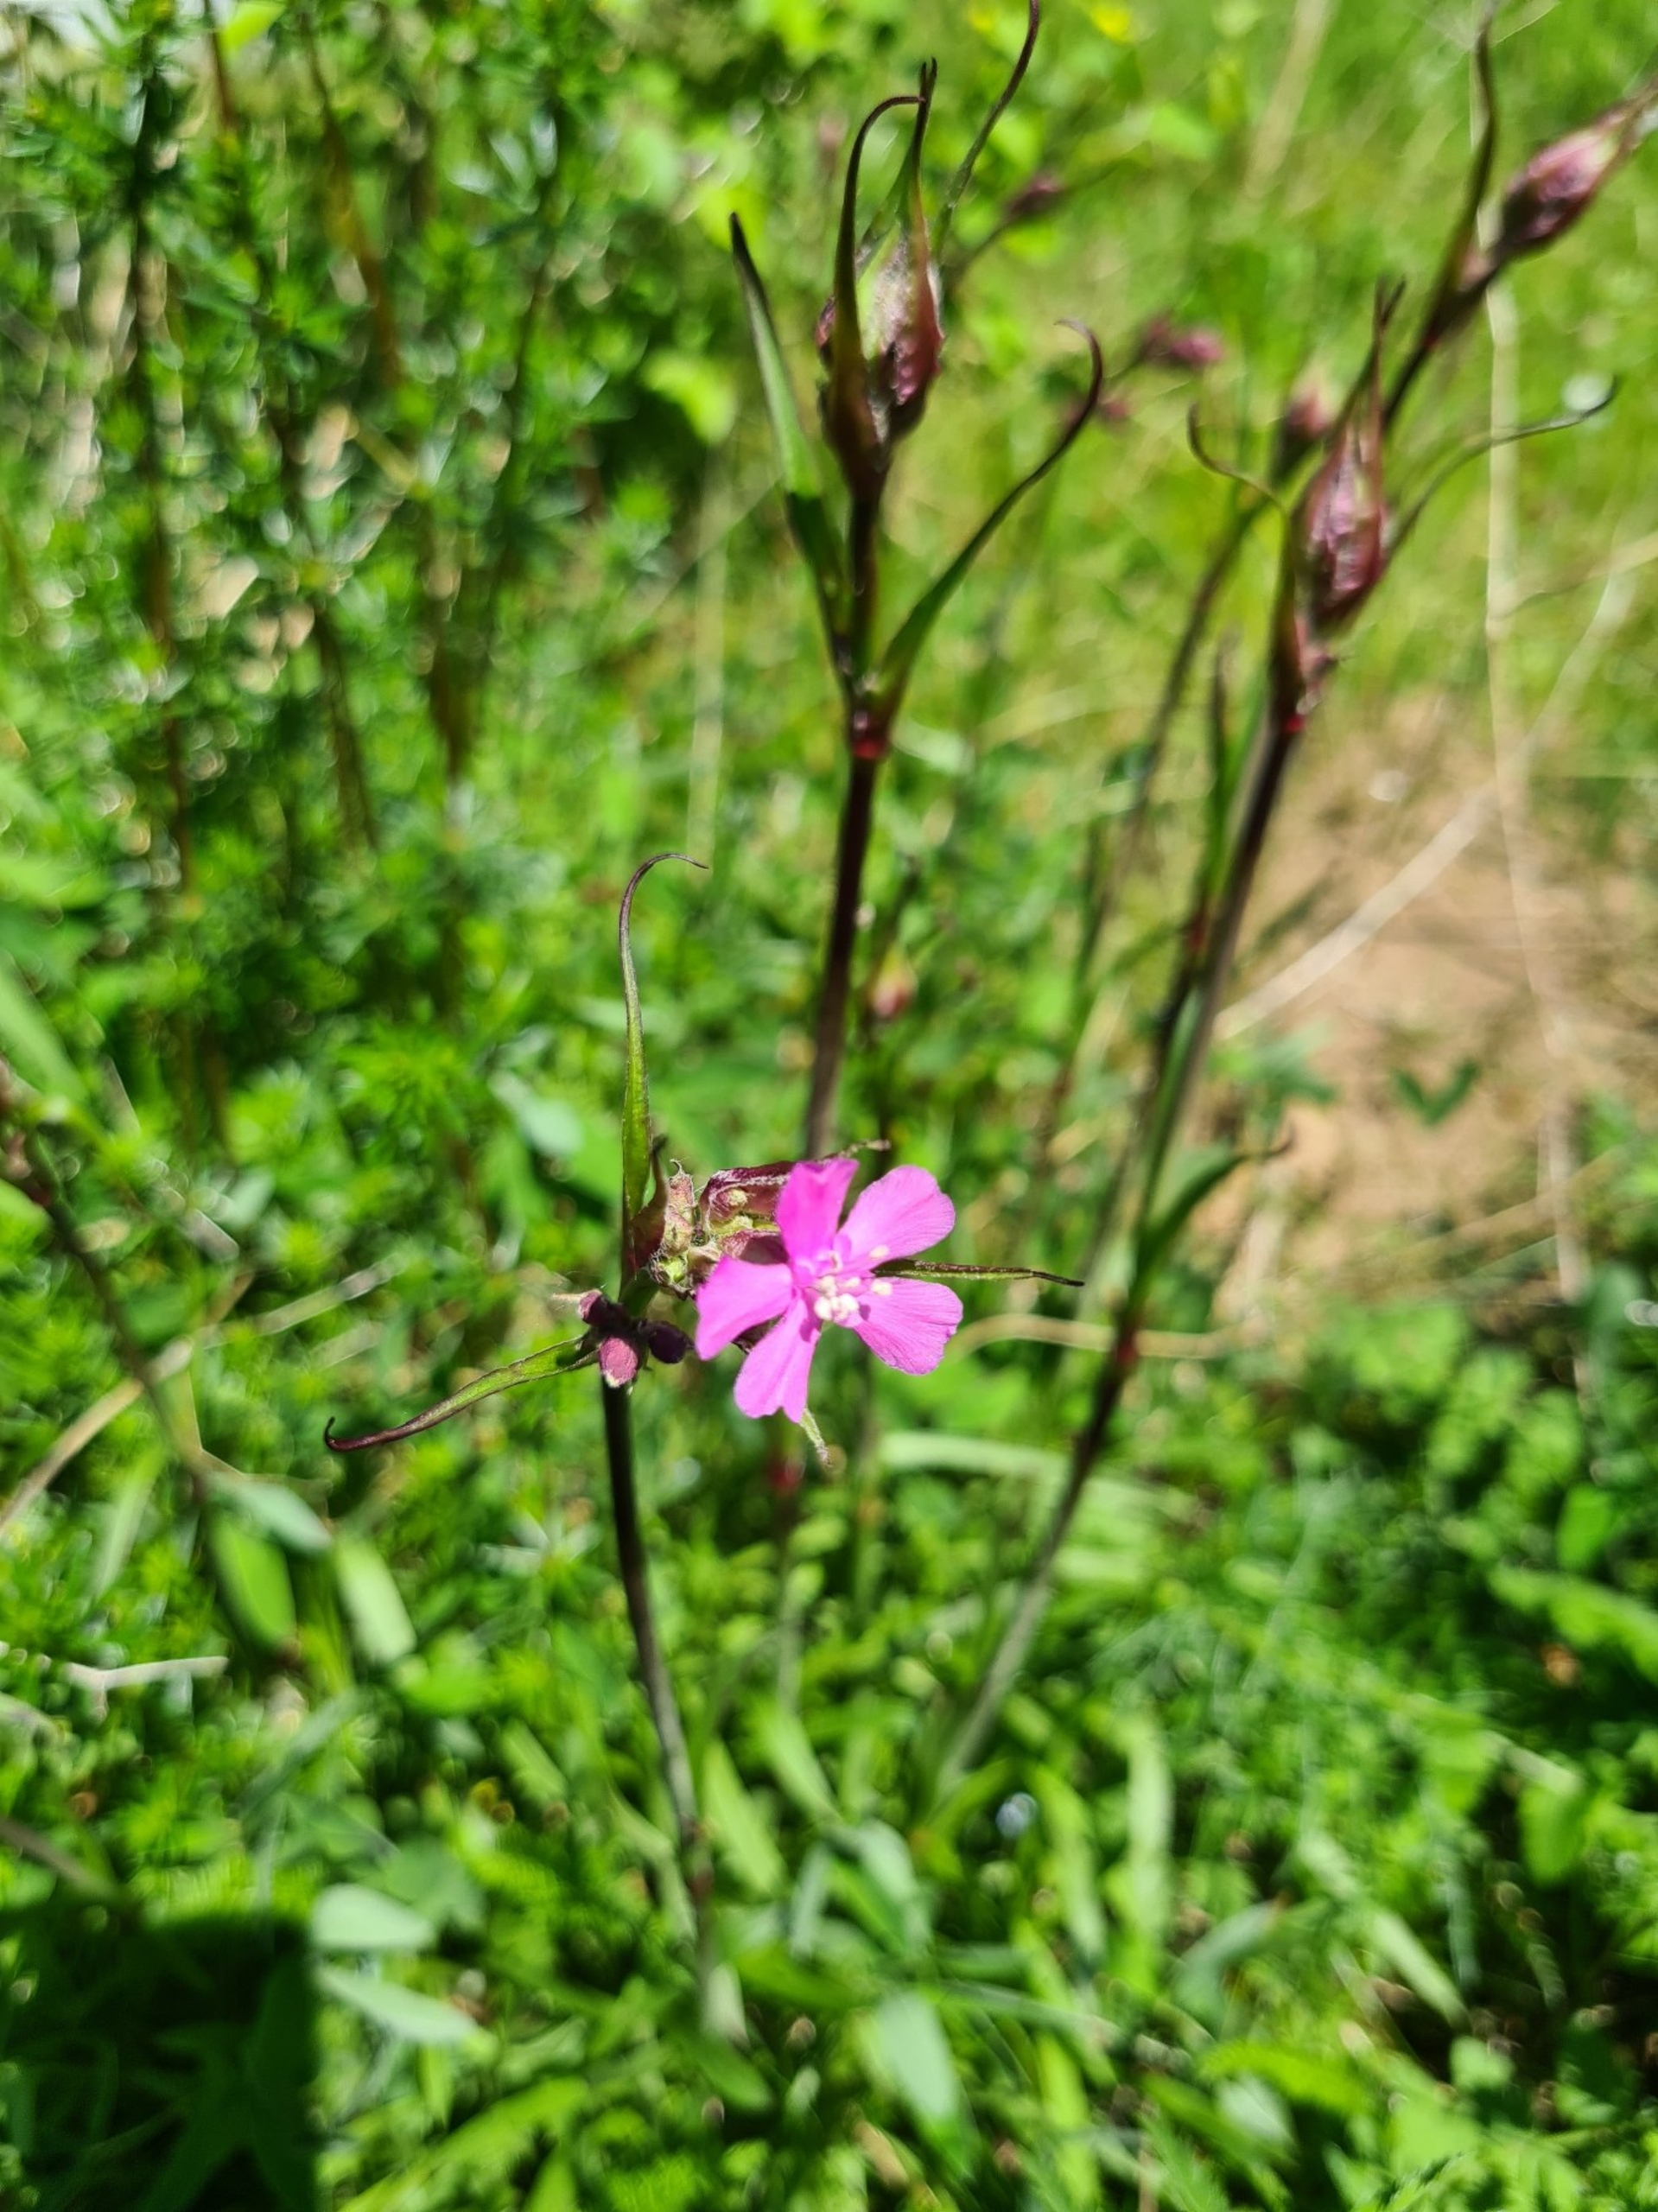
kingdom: Plantae
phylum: Tracheophyta
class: Magnoliopsida
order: Caryophyllales
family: Caryophyllaceae
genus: Viscaria
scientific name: Viscaria vulgaris
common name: Tjærenellike
